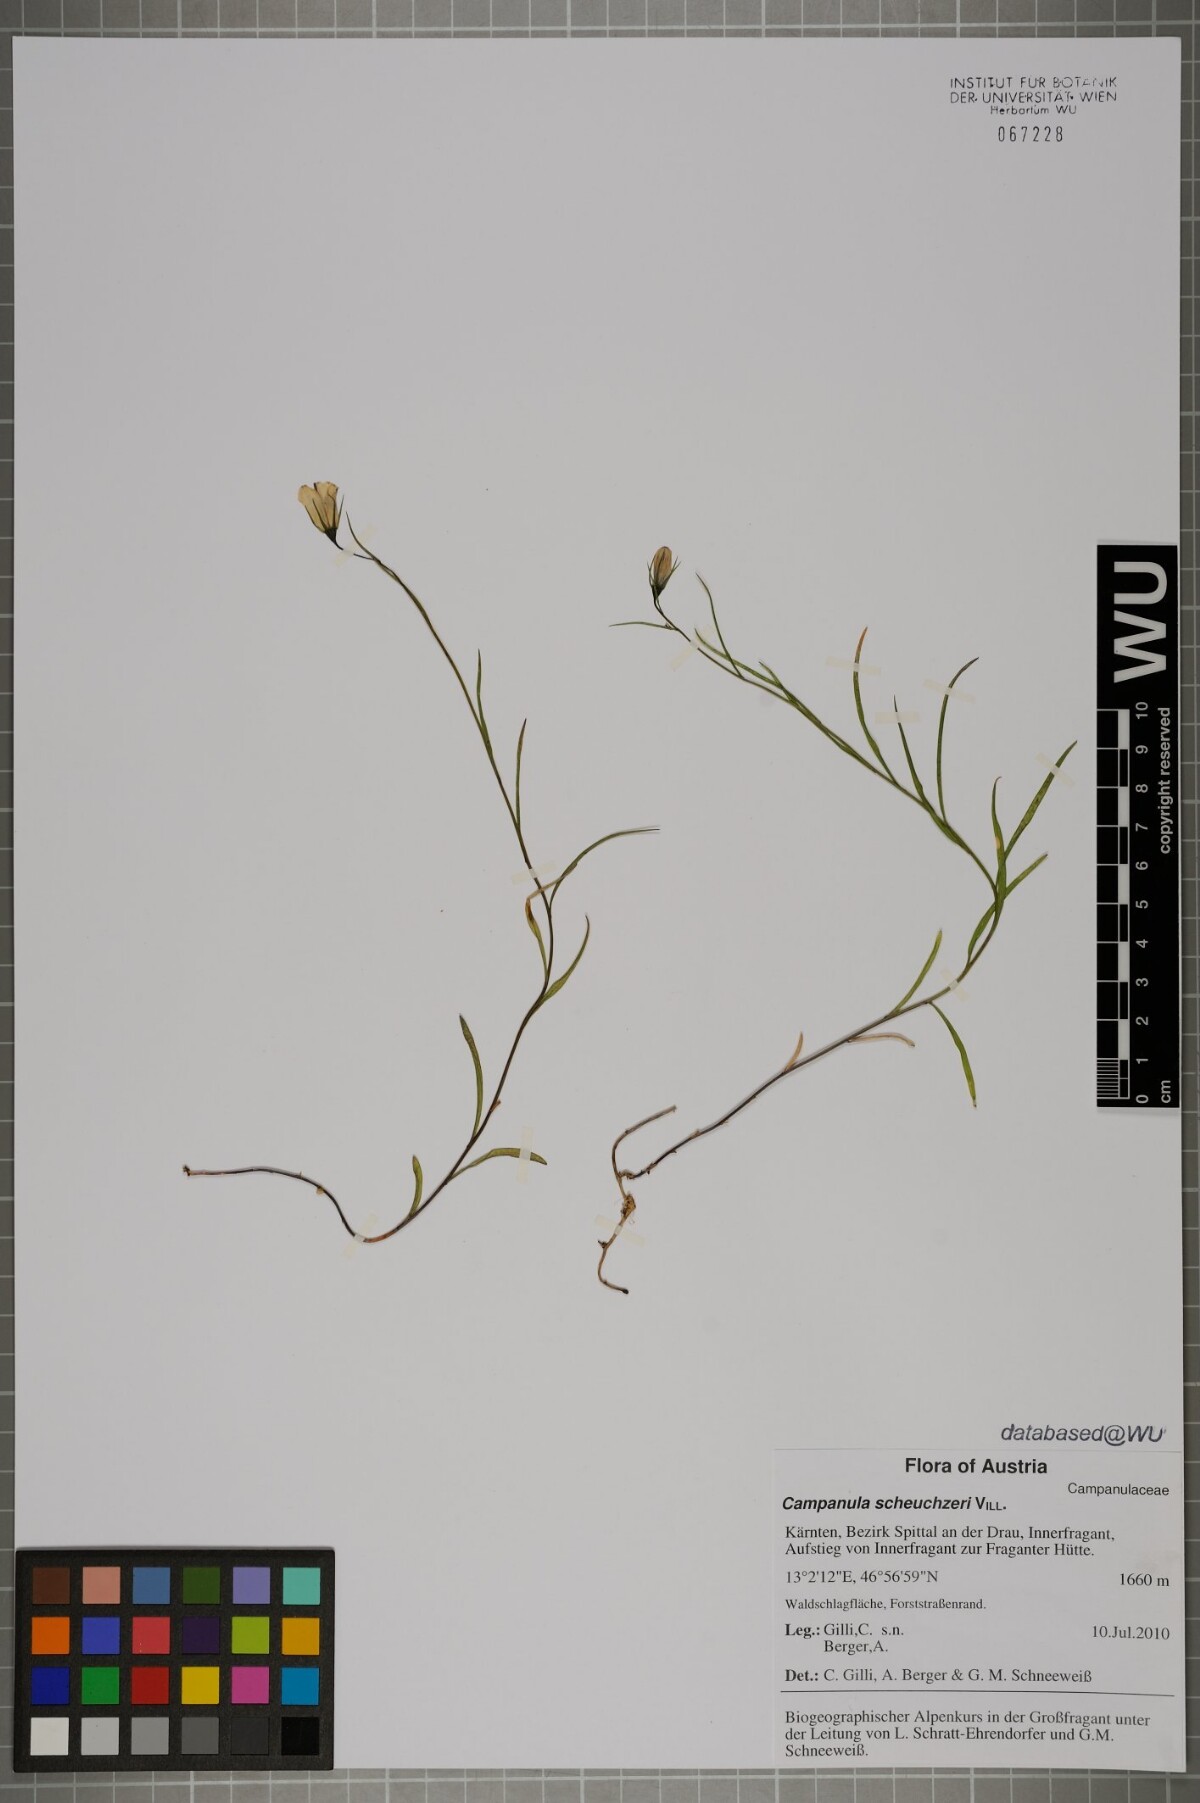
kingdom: Plantae
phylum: Tracheophyta
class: Magnoliopsida
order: Asterales
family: Campanulaceae
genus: Campanula
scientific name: Campanula scheuchzeri
